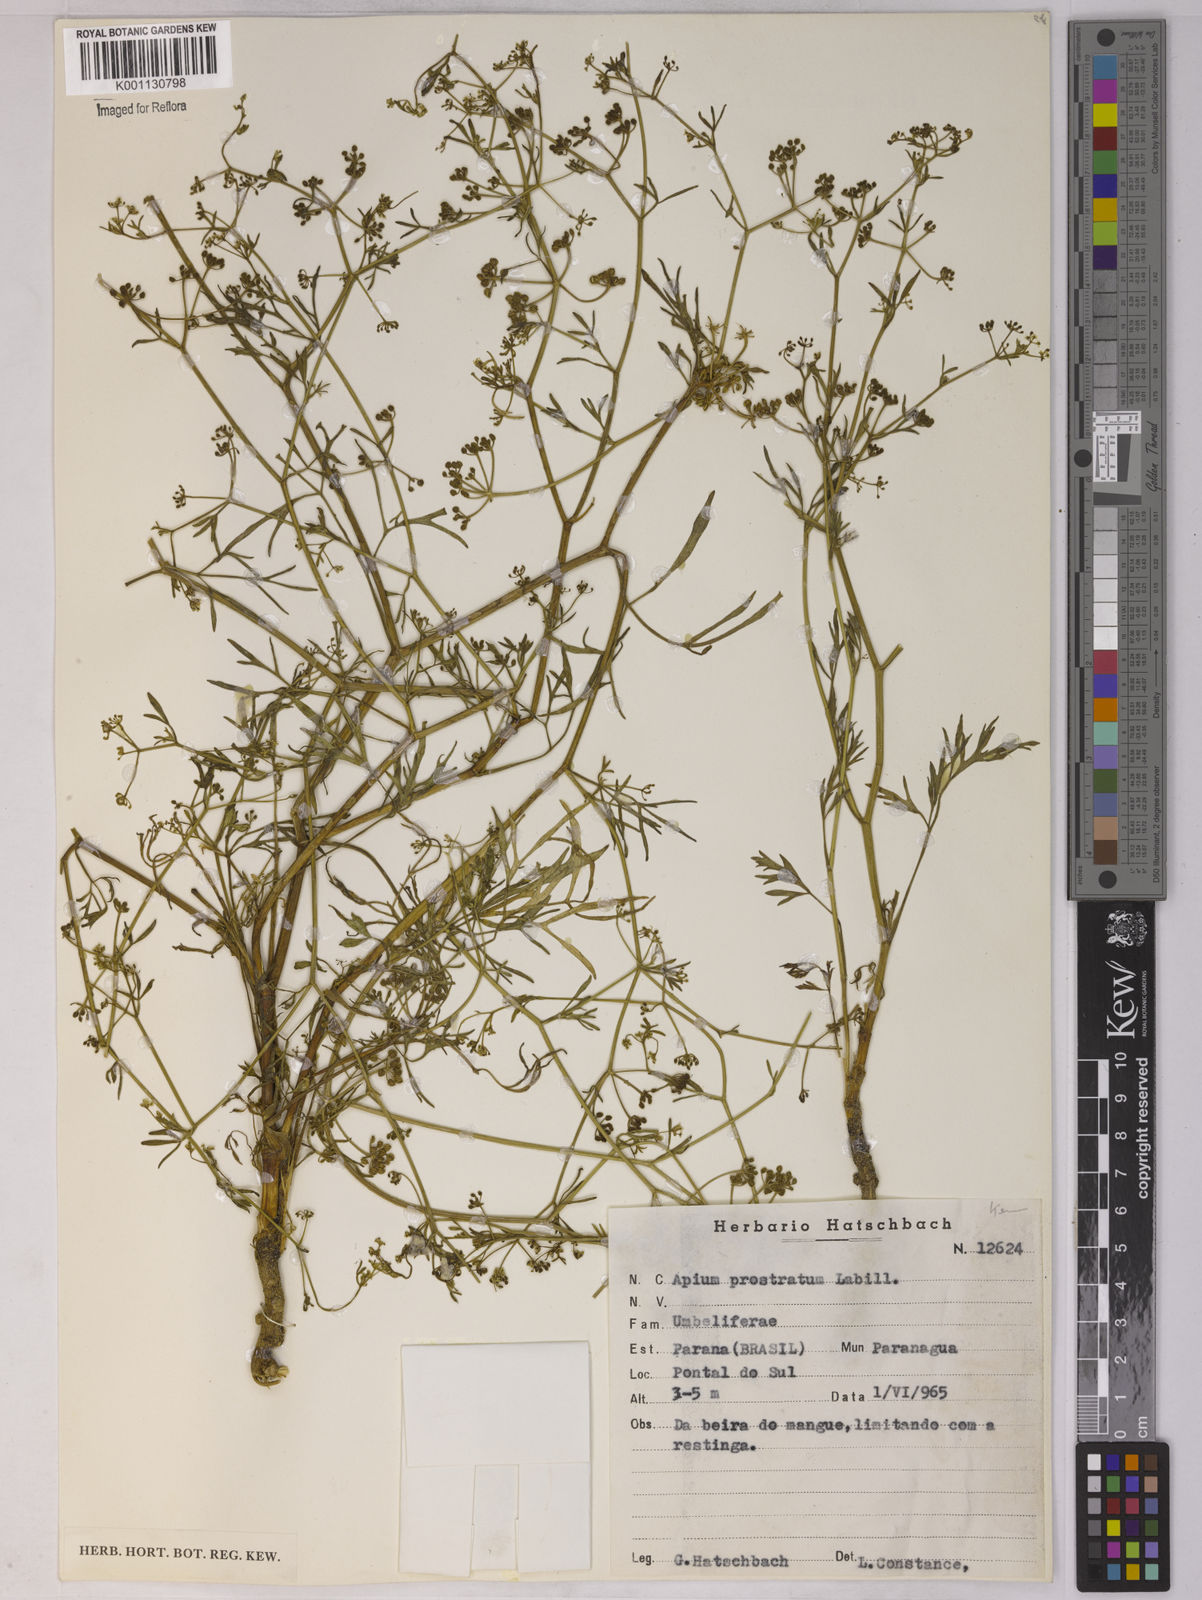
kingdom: Plantae
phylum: Tracheophyta
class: Magnoliopsida
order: Apiales
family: Apiaceae
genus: Apium
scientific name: Apium
